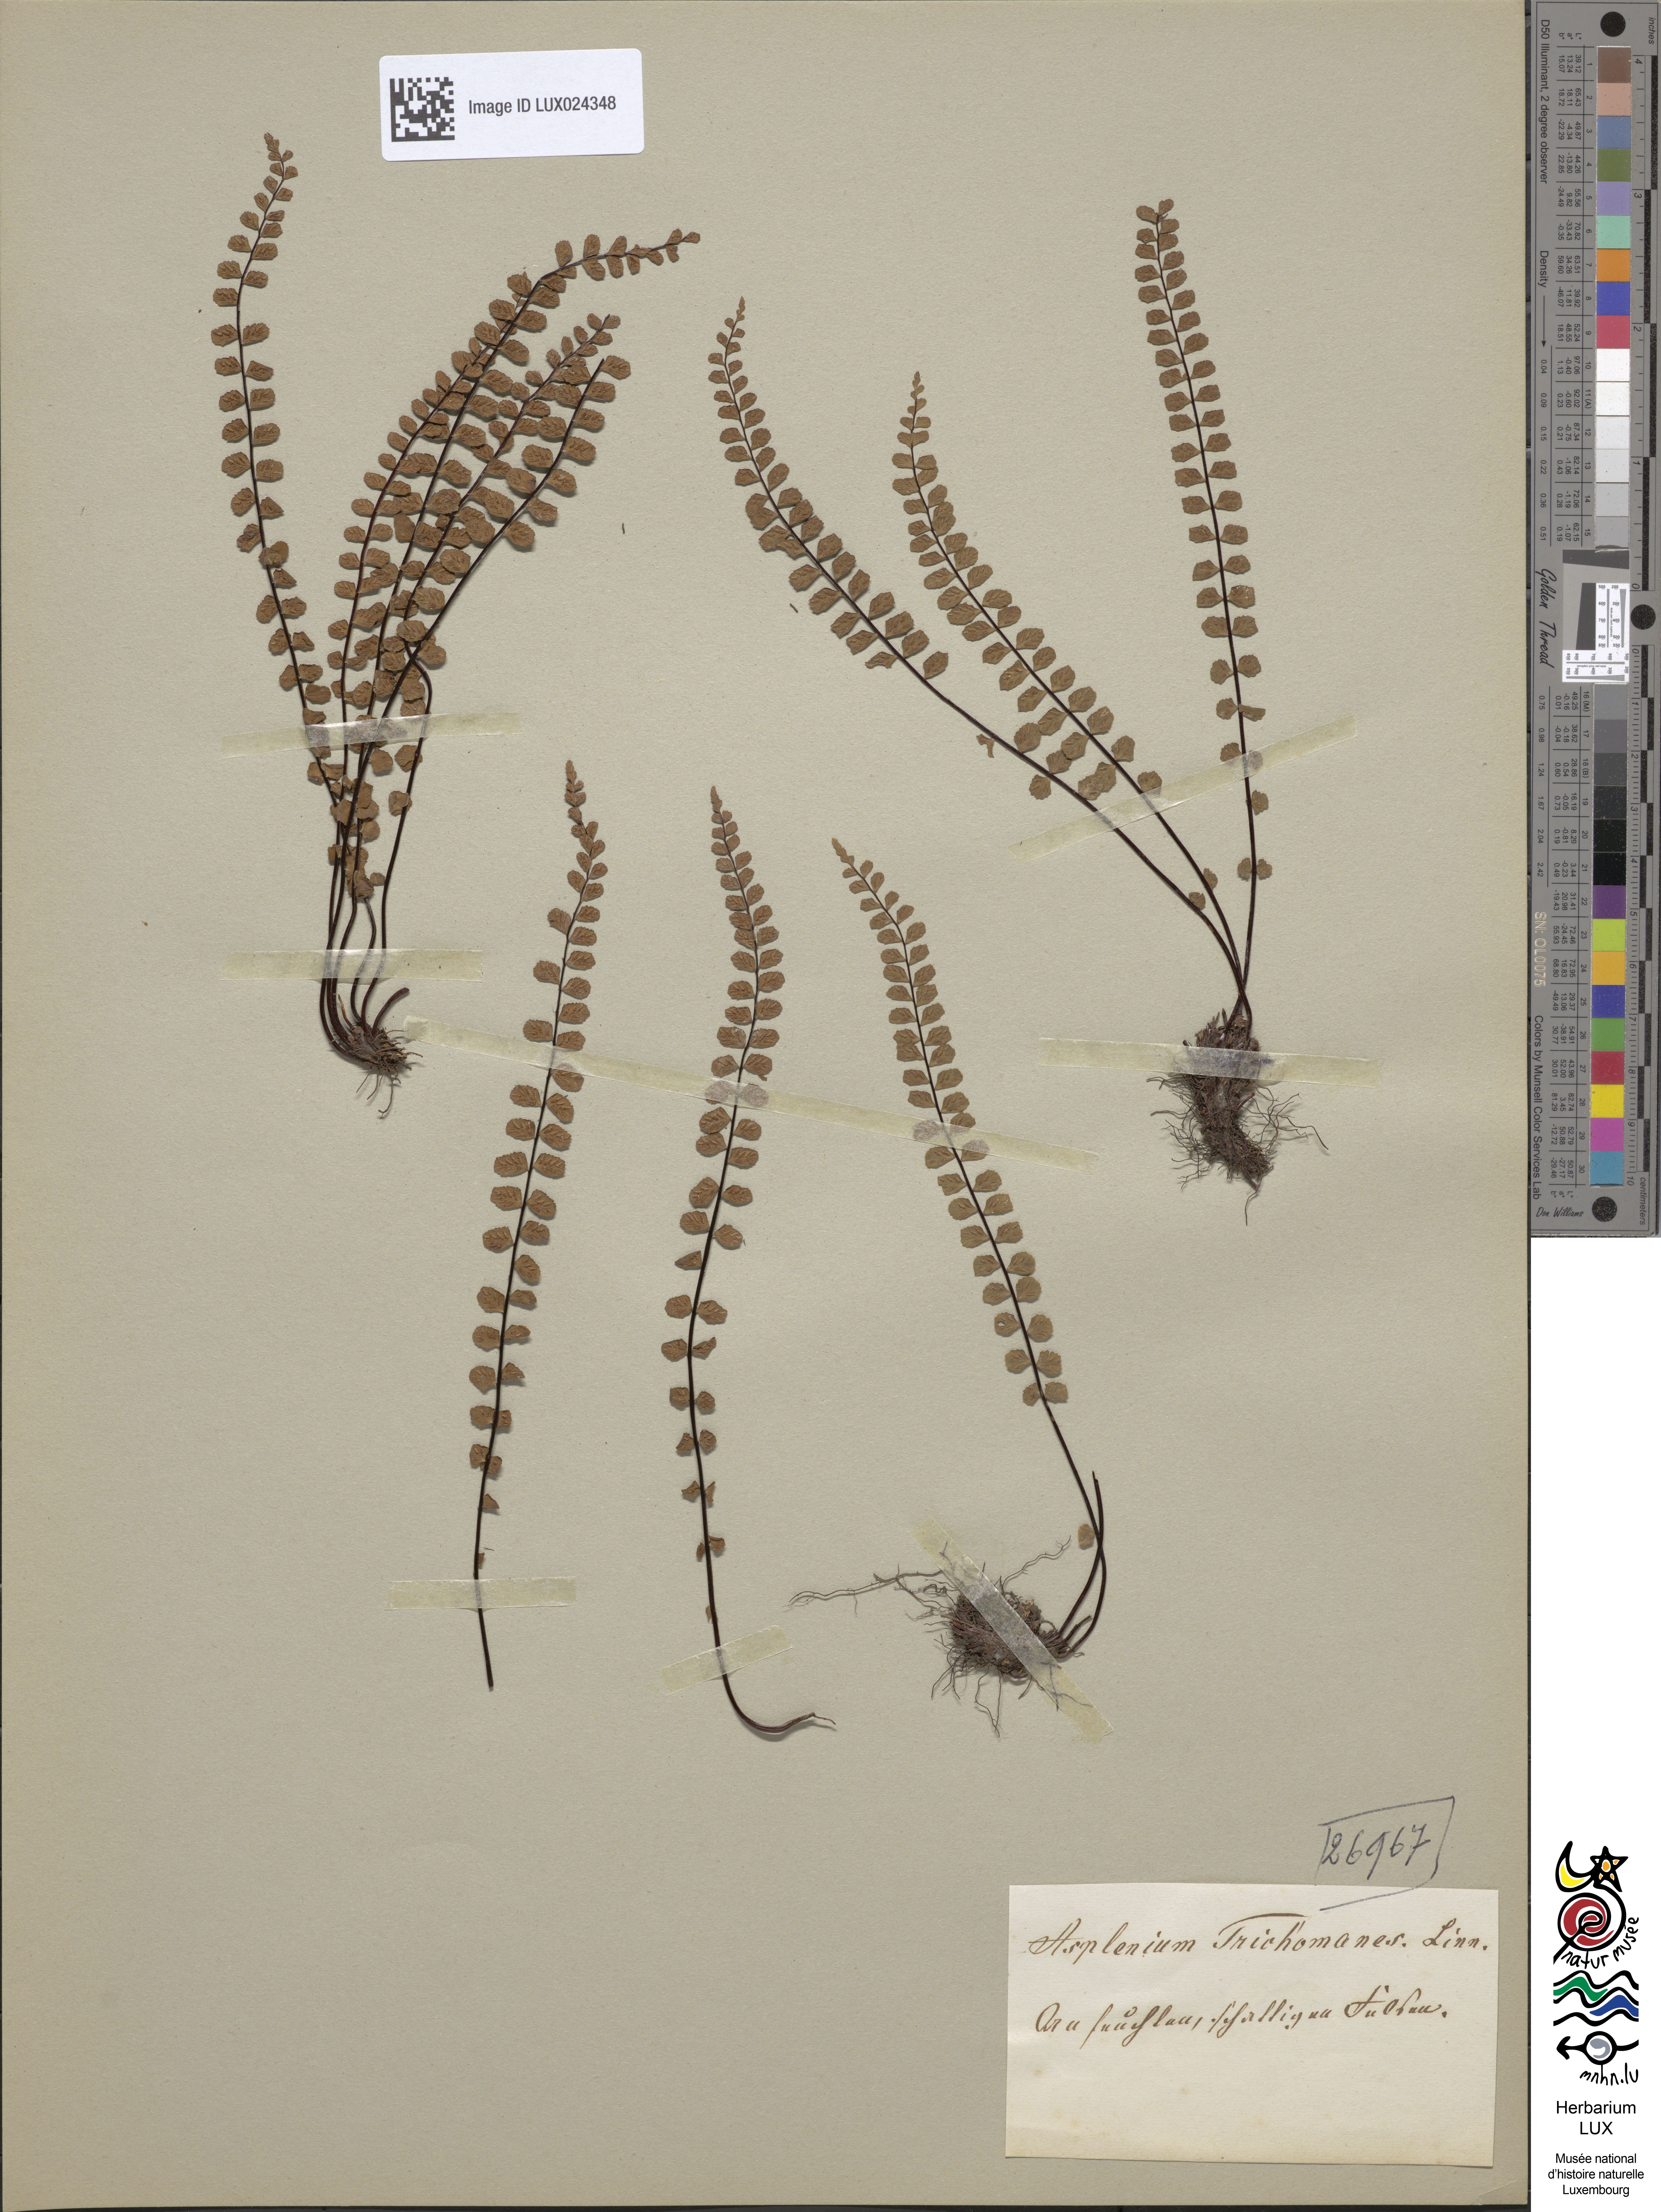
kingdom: Plantae
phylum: Tracheophyta
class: Polypodiopsida
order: Polypodiales
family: Aspleniaceae
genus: Asplenium
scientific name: Asplenium trichomanes
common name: Maidenhair spleenwort
